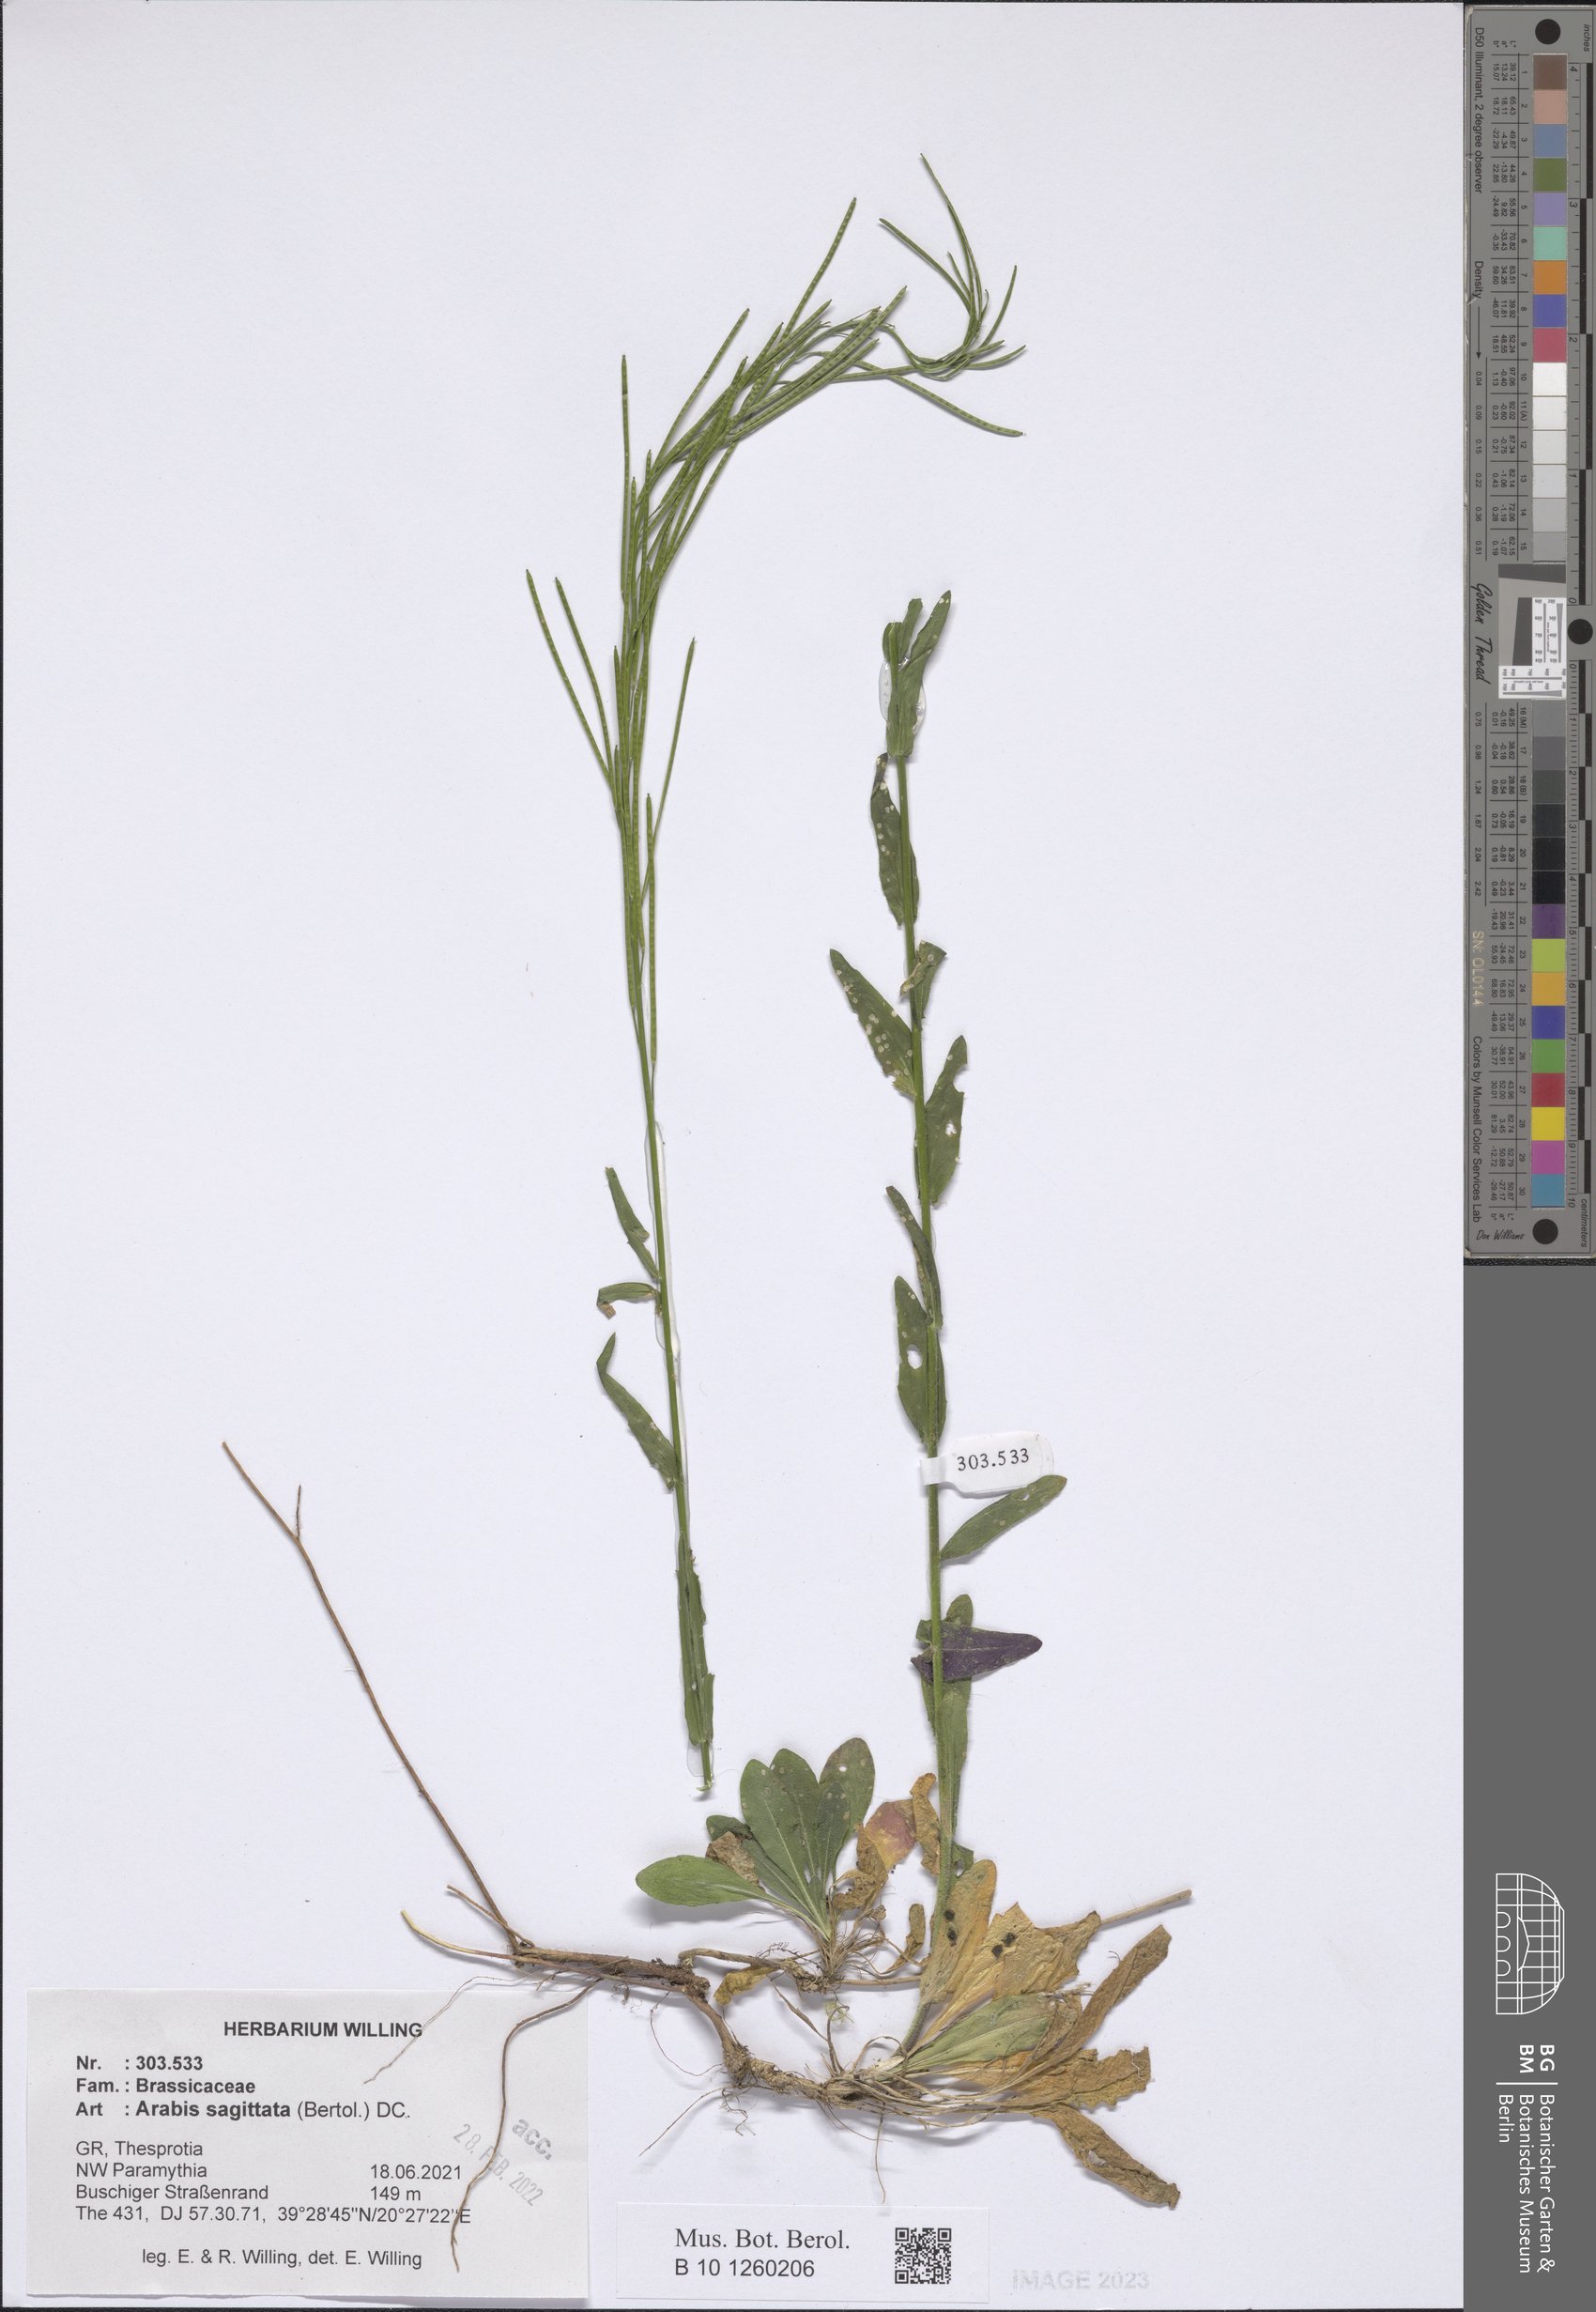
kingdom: Plantae
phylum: Tracheophyta
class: Magnoliopsida
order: Brassicales
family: Brassicaceae
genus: Arabis
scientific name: Arabis sagittata
